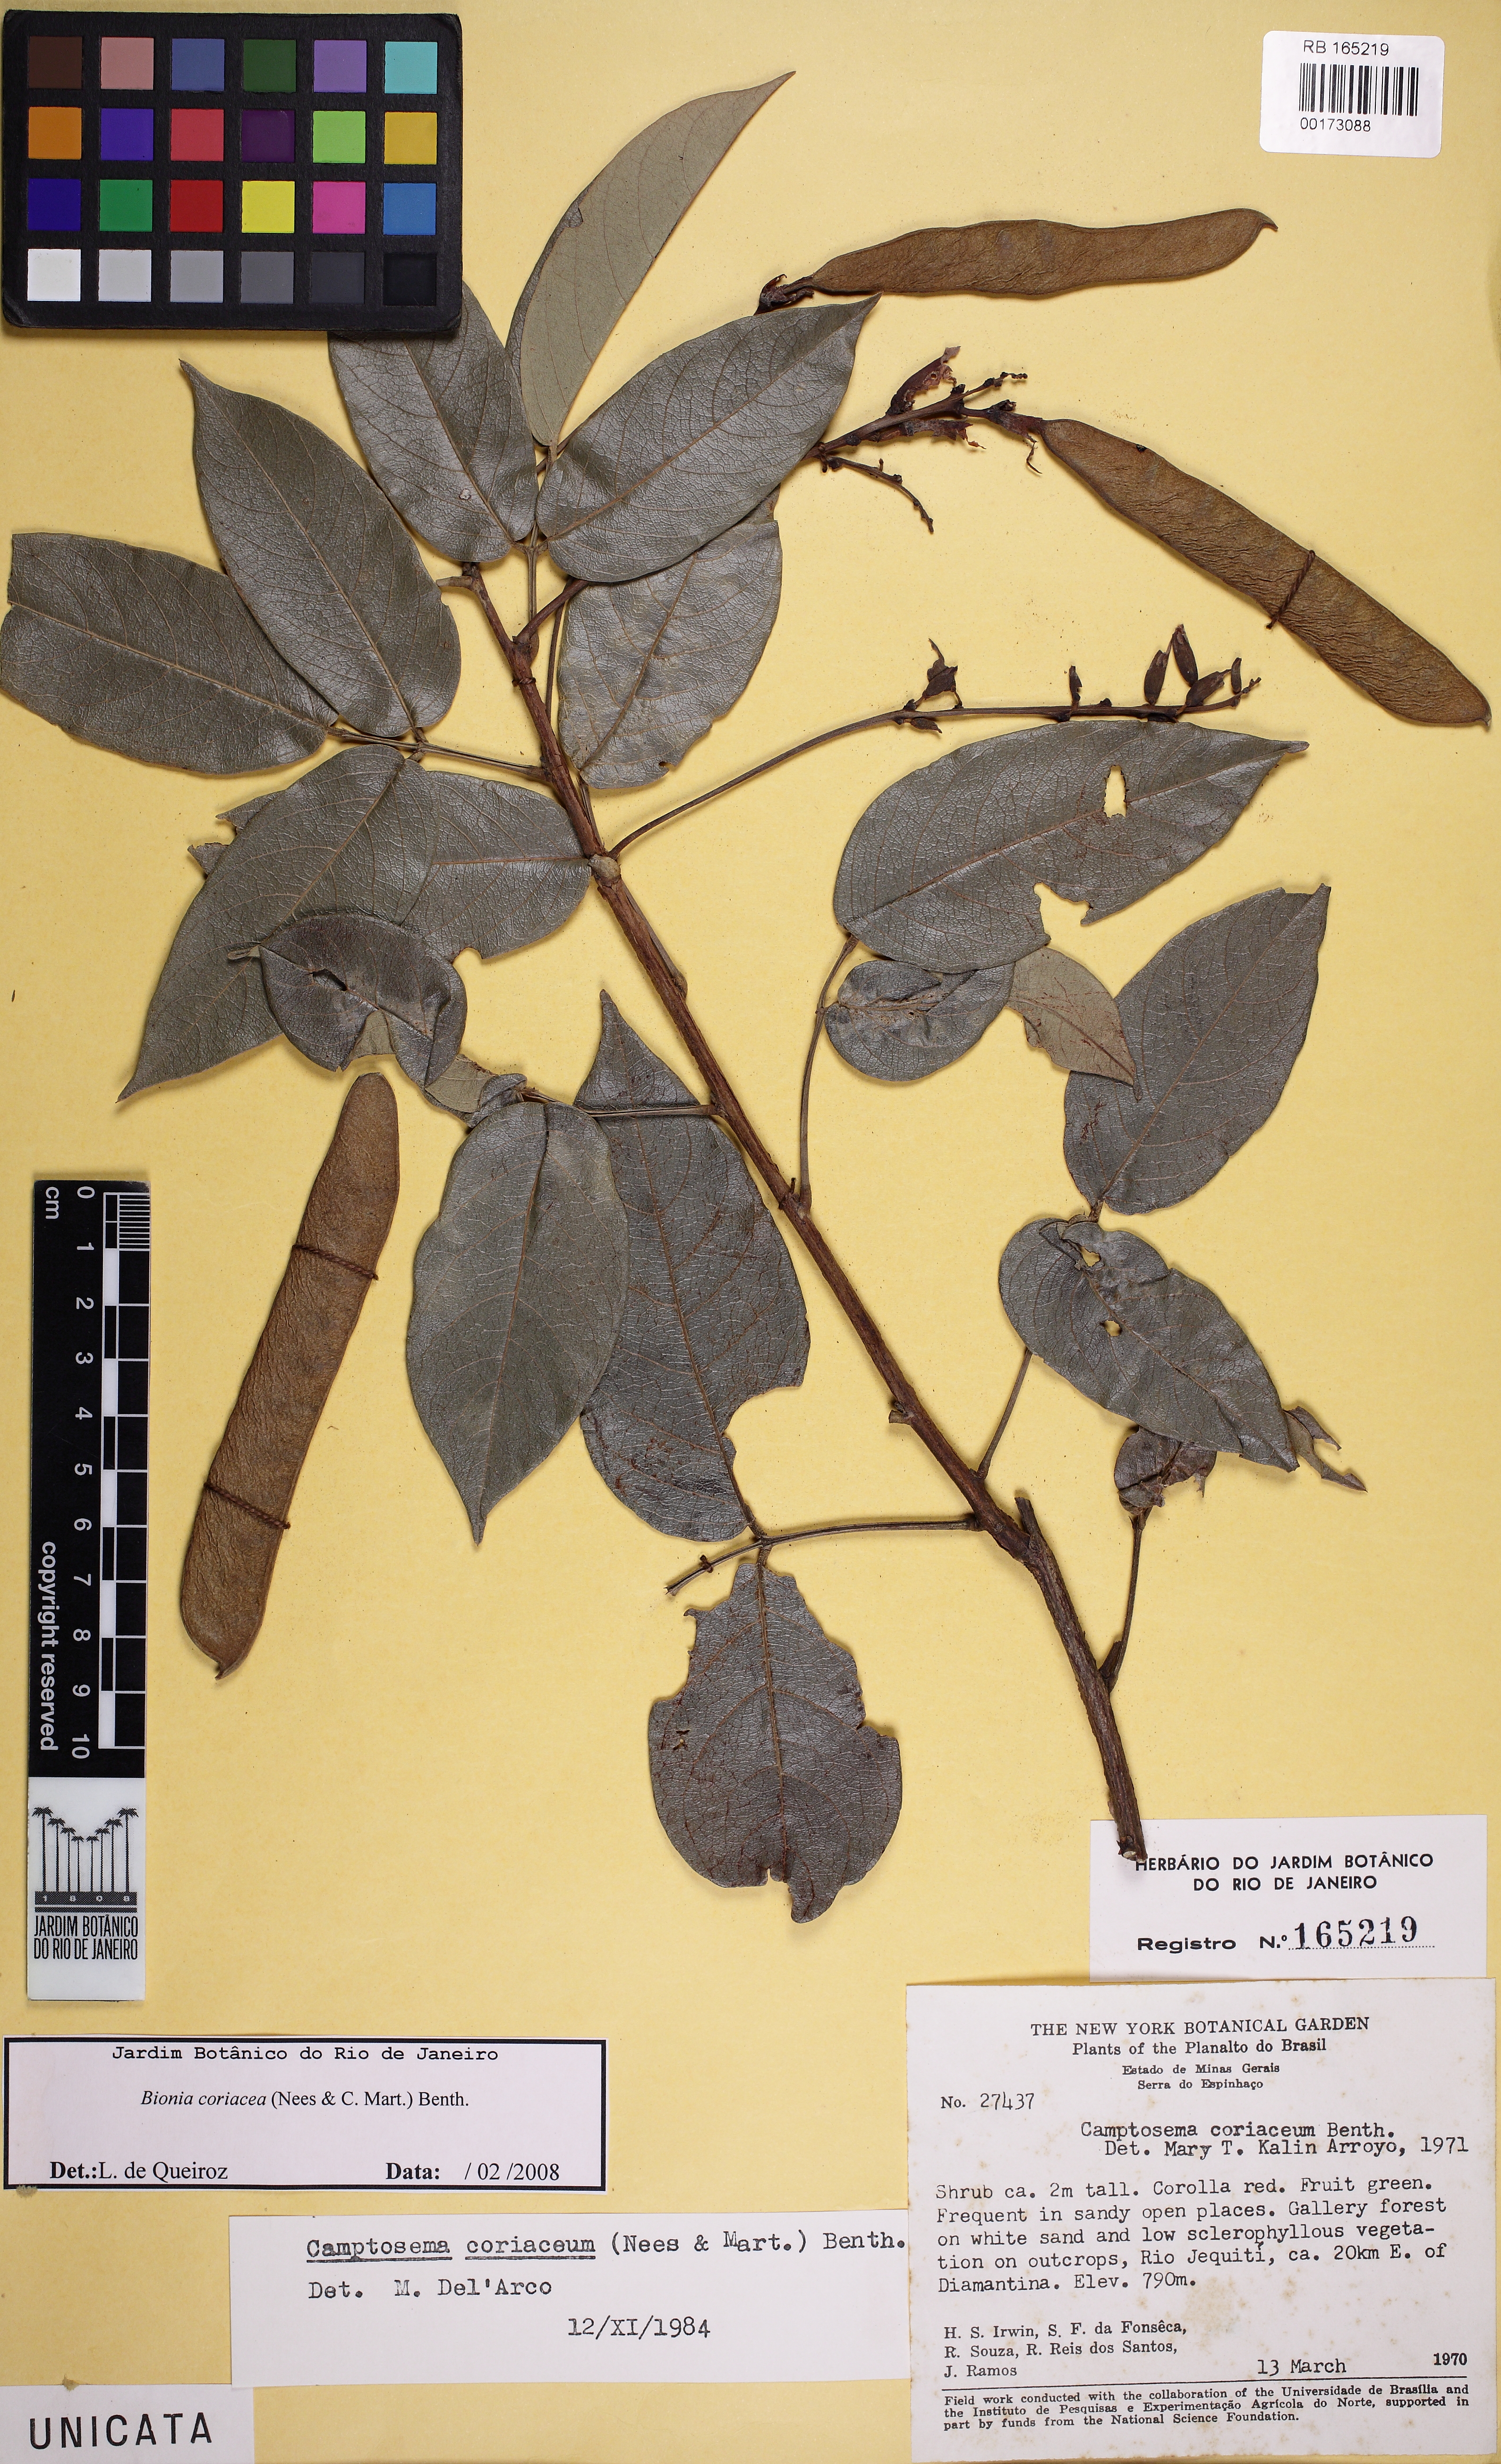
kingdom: Plantae
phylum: Tracheophyta
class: Magnoliopsida
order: Fabales
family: Fabaceae
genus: Camptosema
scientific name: Camptosema coriaceum
